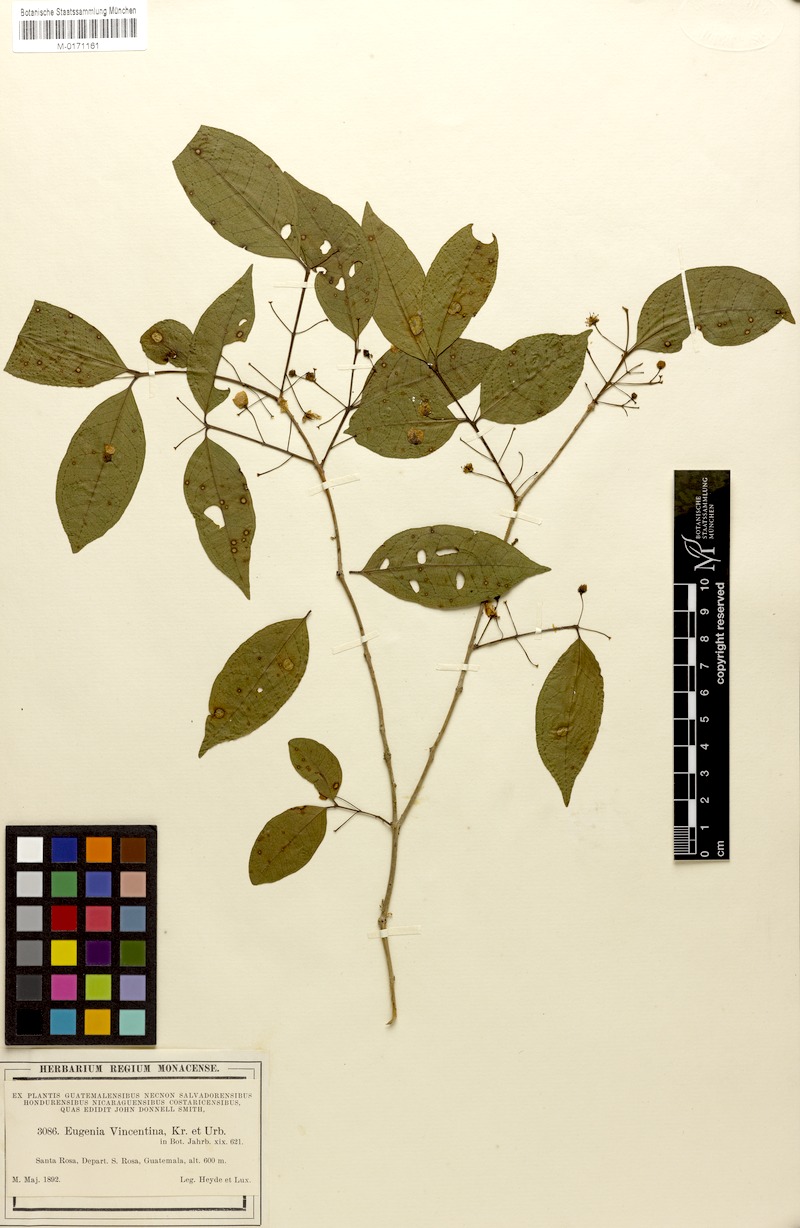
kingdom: Plantae
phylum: Tracheophyta
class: Magnoliopsida
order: Myrtales
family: Myrtaceae
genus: Eugenia
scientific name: Eugenia oerstediana
